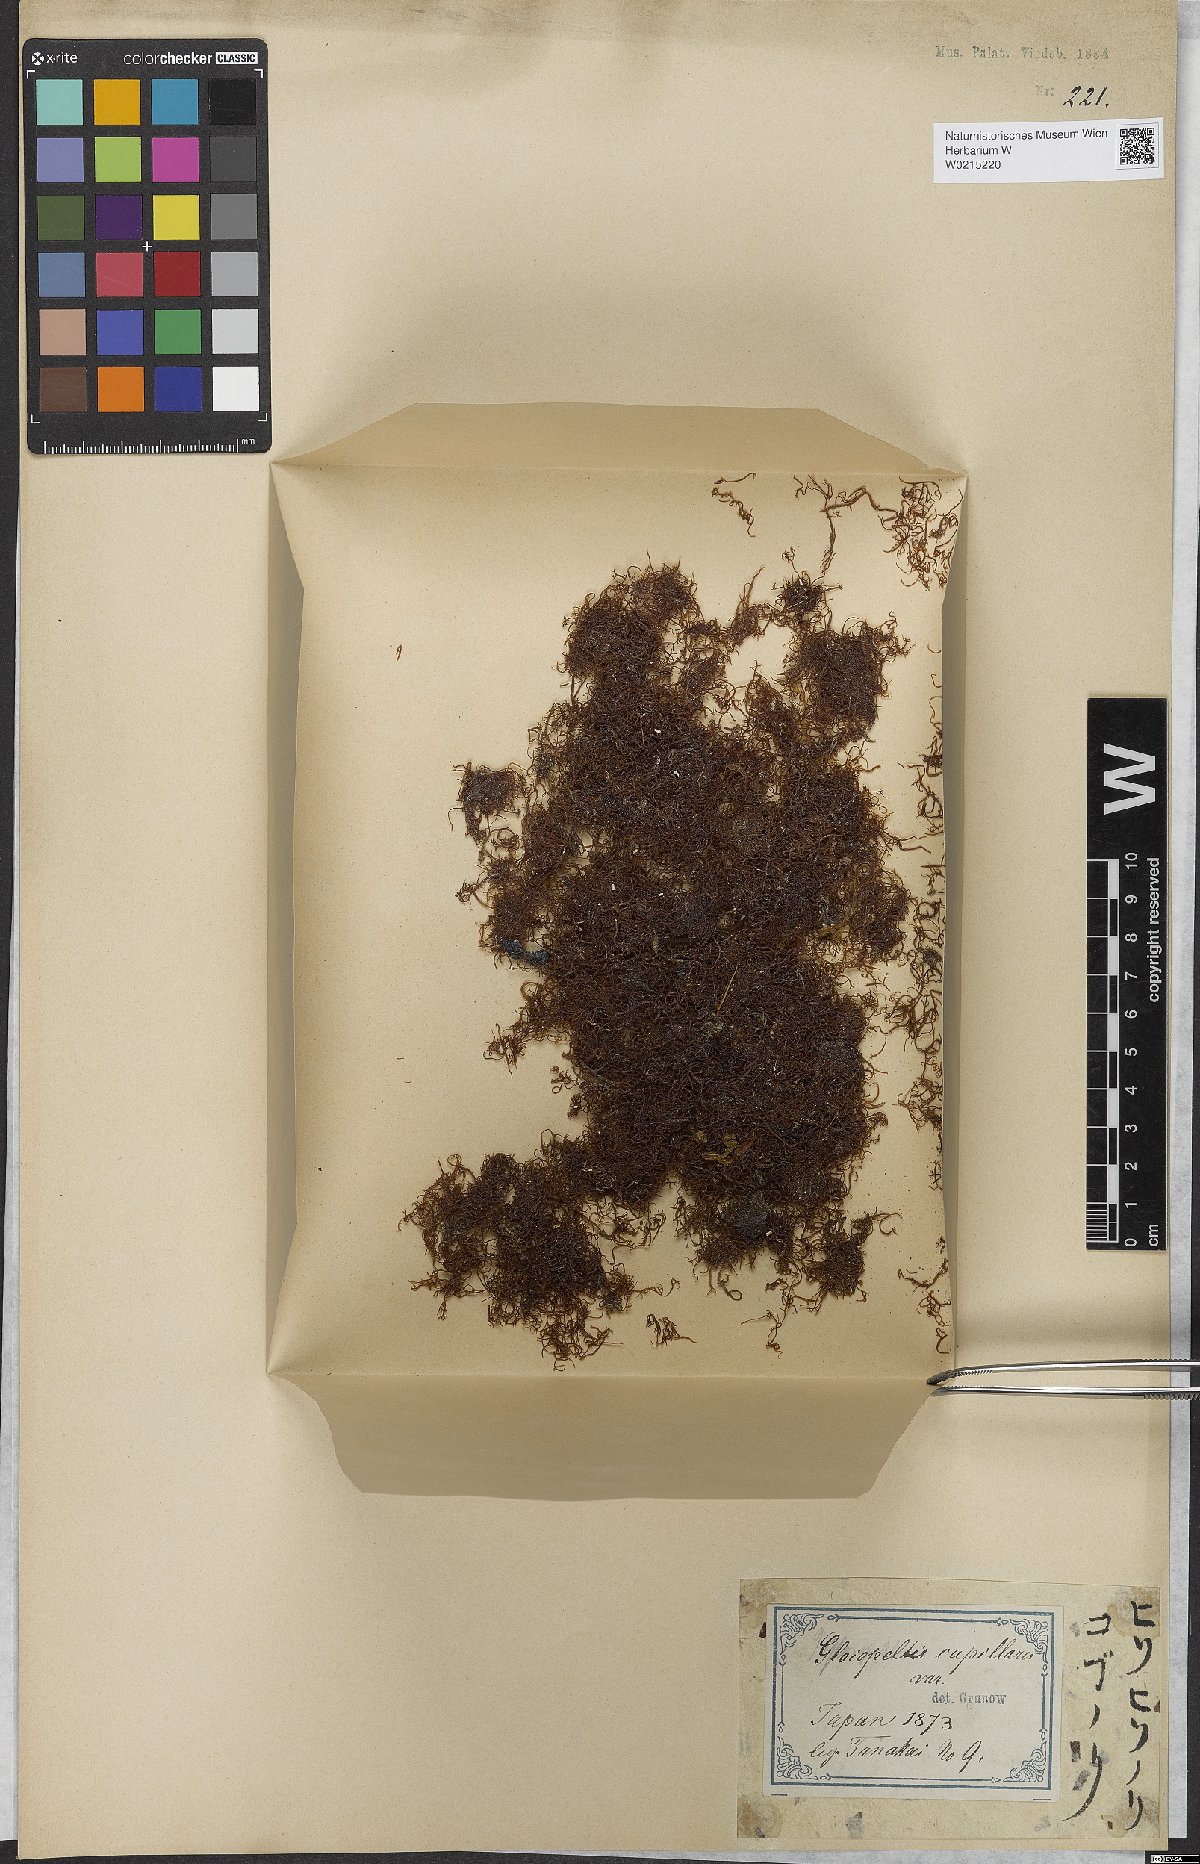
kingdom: Plantae
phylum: Rhodophyta
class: Florideophyceae
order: Gigartinales
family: Endocladiaceae
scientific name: Endocladiaceae
